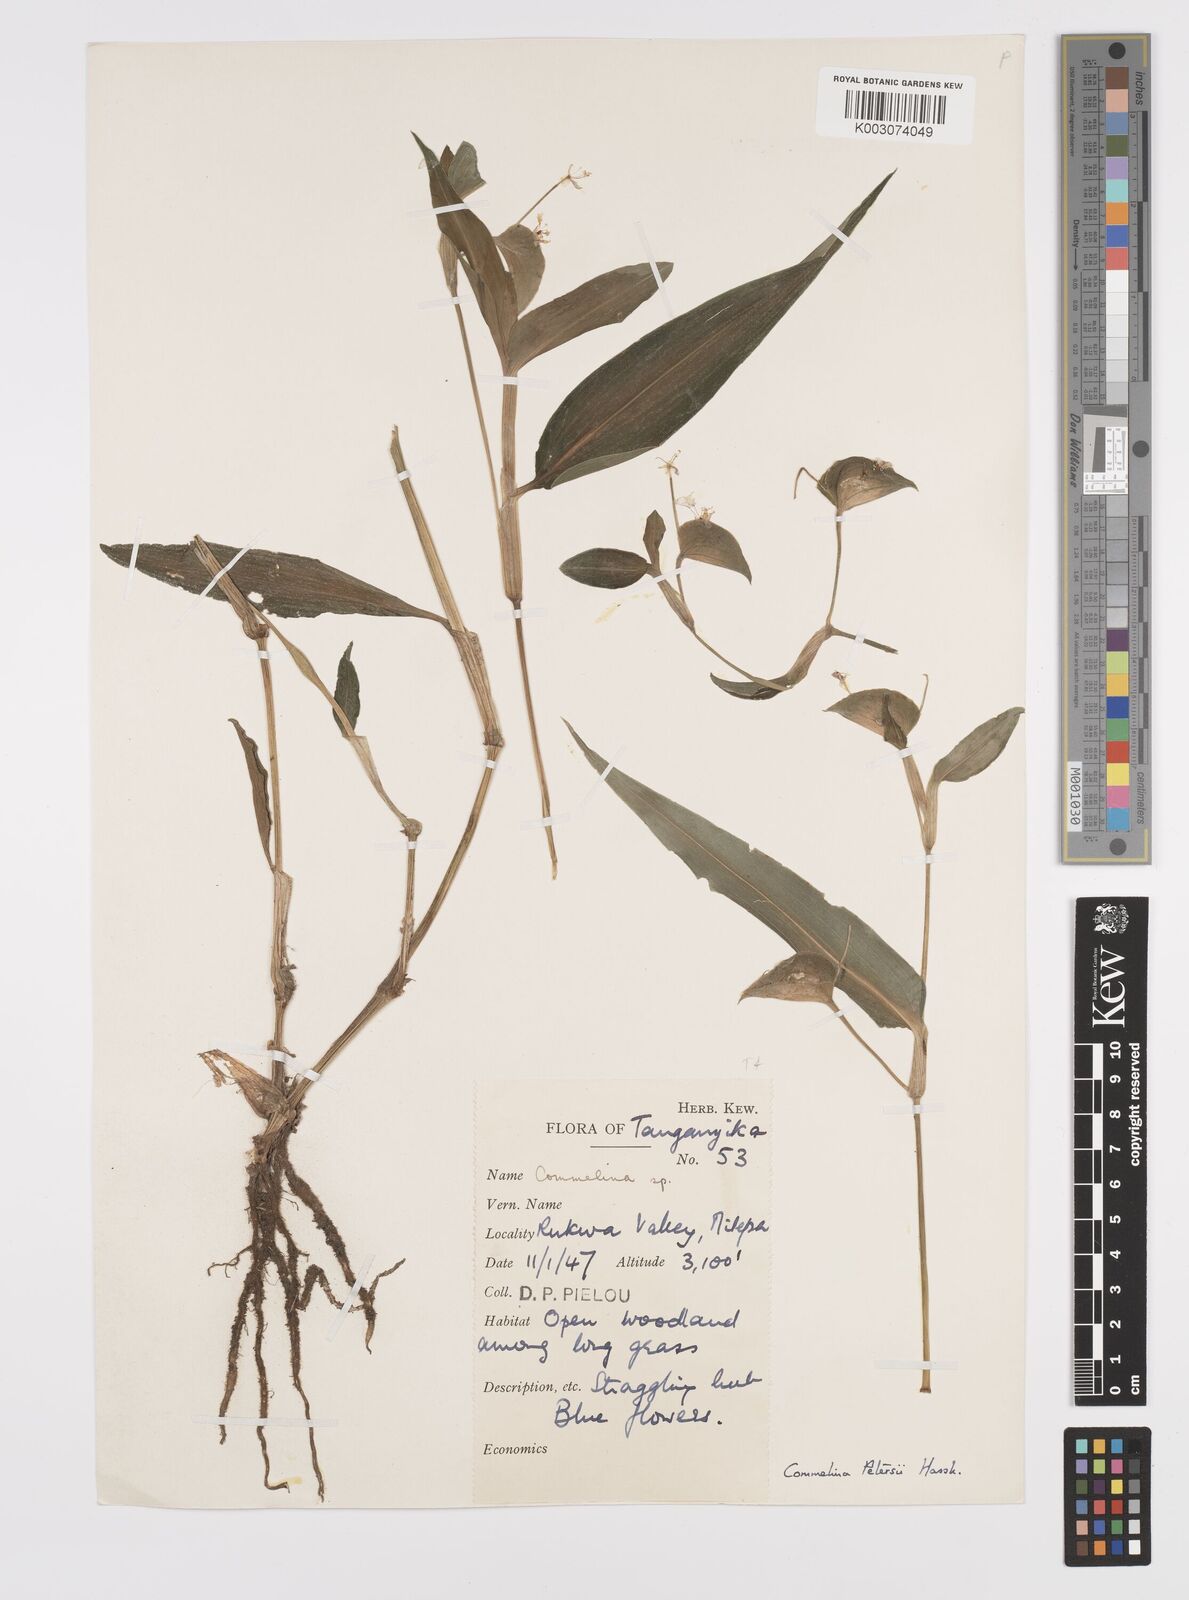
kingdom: Plantae
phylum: Tracheophyta
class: Liliopsida
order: Commelinales
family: Commelinaceae
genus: Commelina
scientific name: Commelina petersii
